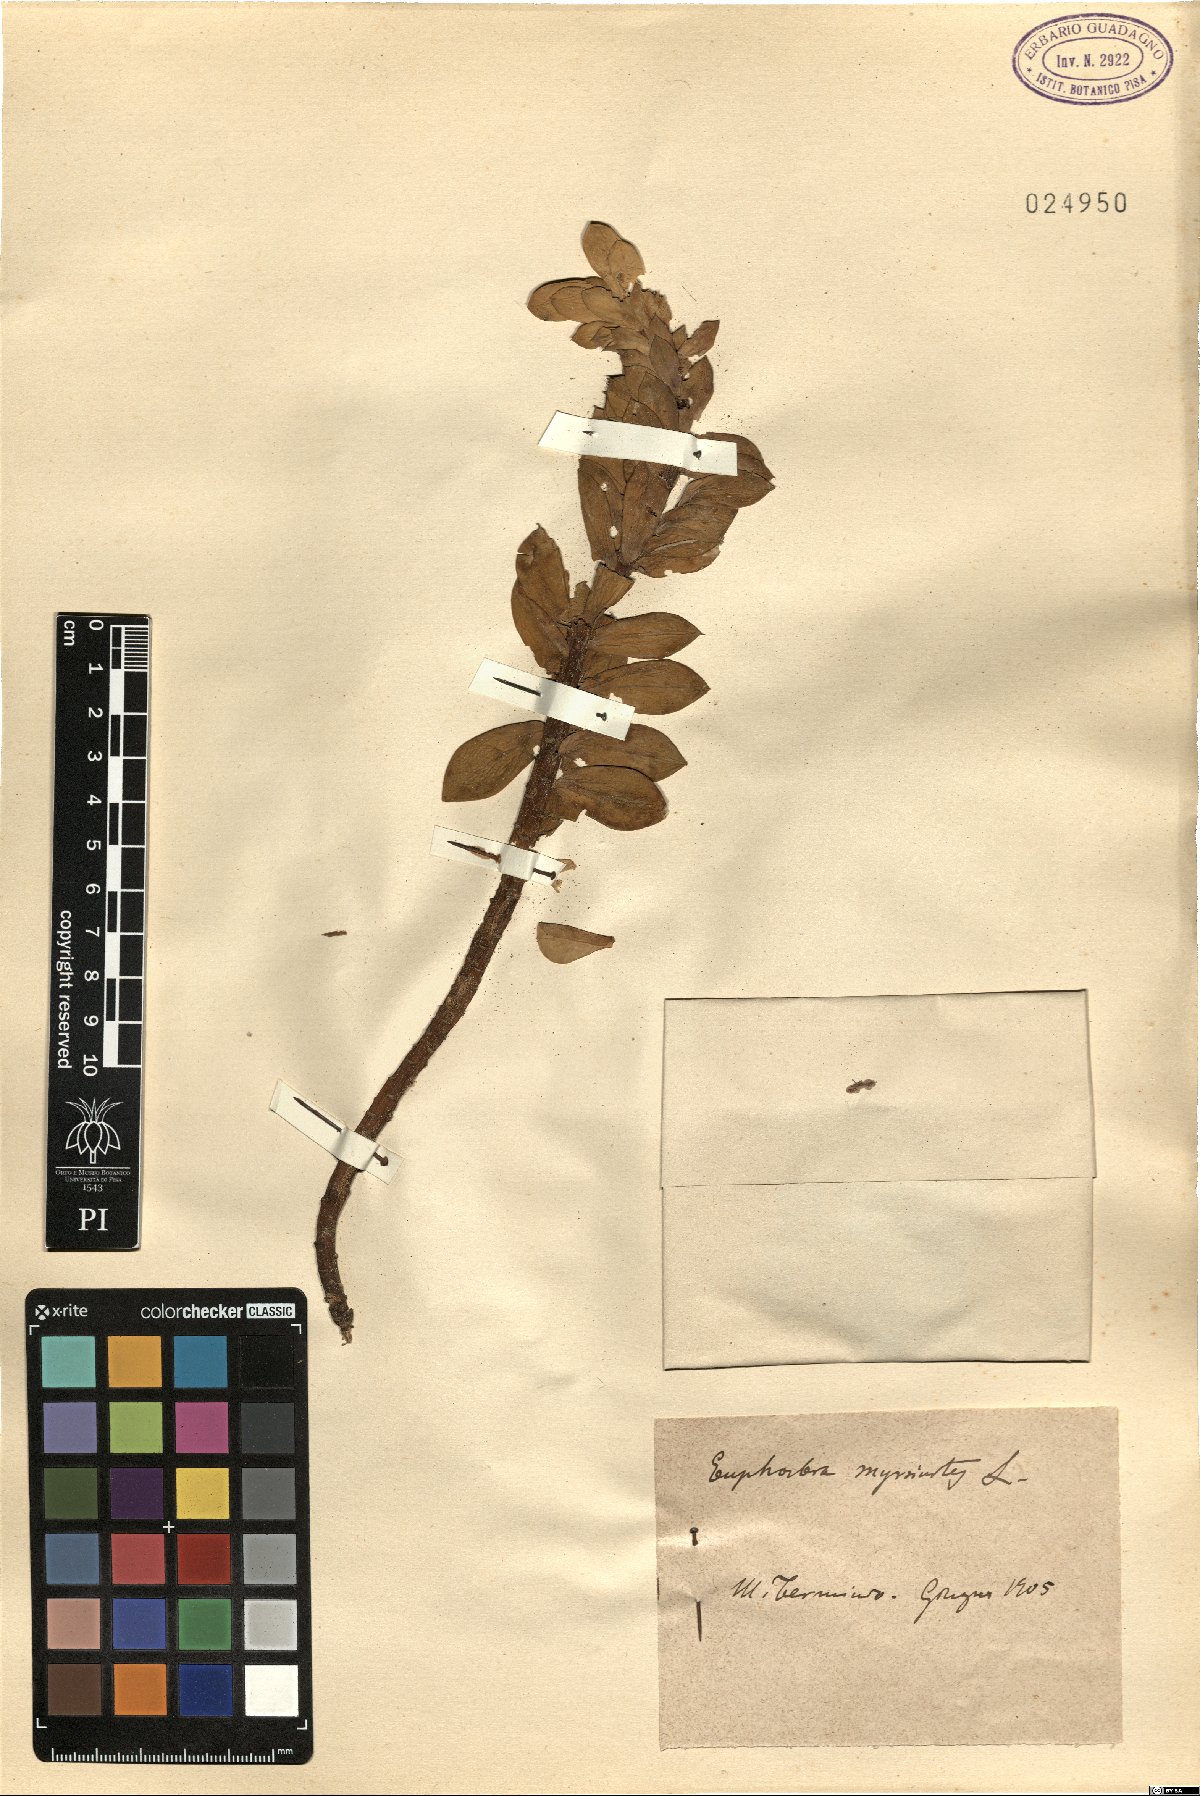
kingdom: Plantae
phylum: Tracheophyta
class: Magnoliopsida
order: Malpighiales
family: Euphorbiaceae
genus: Euphorbia
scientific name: Euphorbia myrsinites
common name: Myrtle spurge
